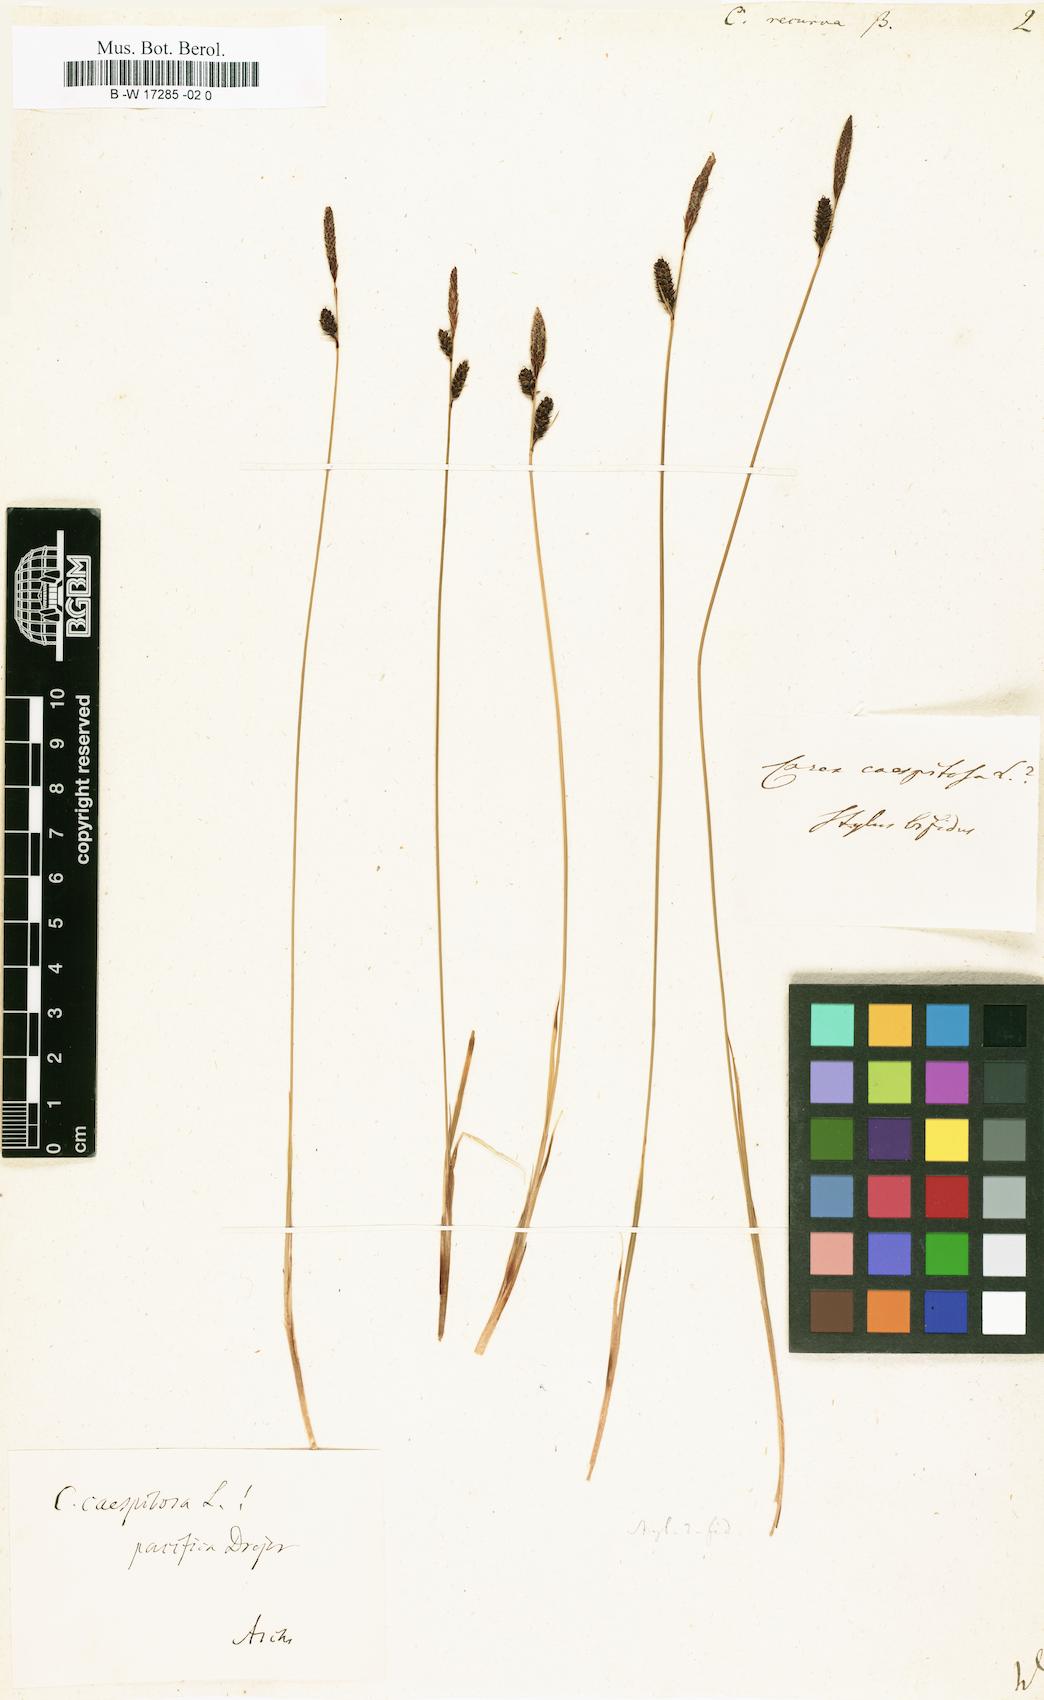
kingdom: Plantae
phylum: Tracheophyta
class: Liliopsida
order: Poales
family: Cyperaceae
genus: Carex
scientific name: Carex
